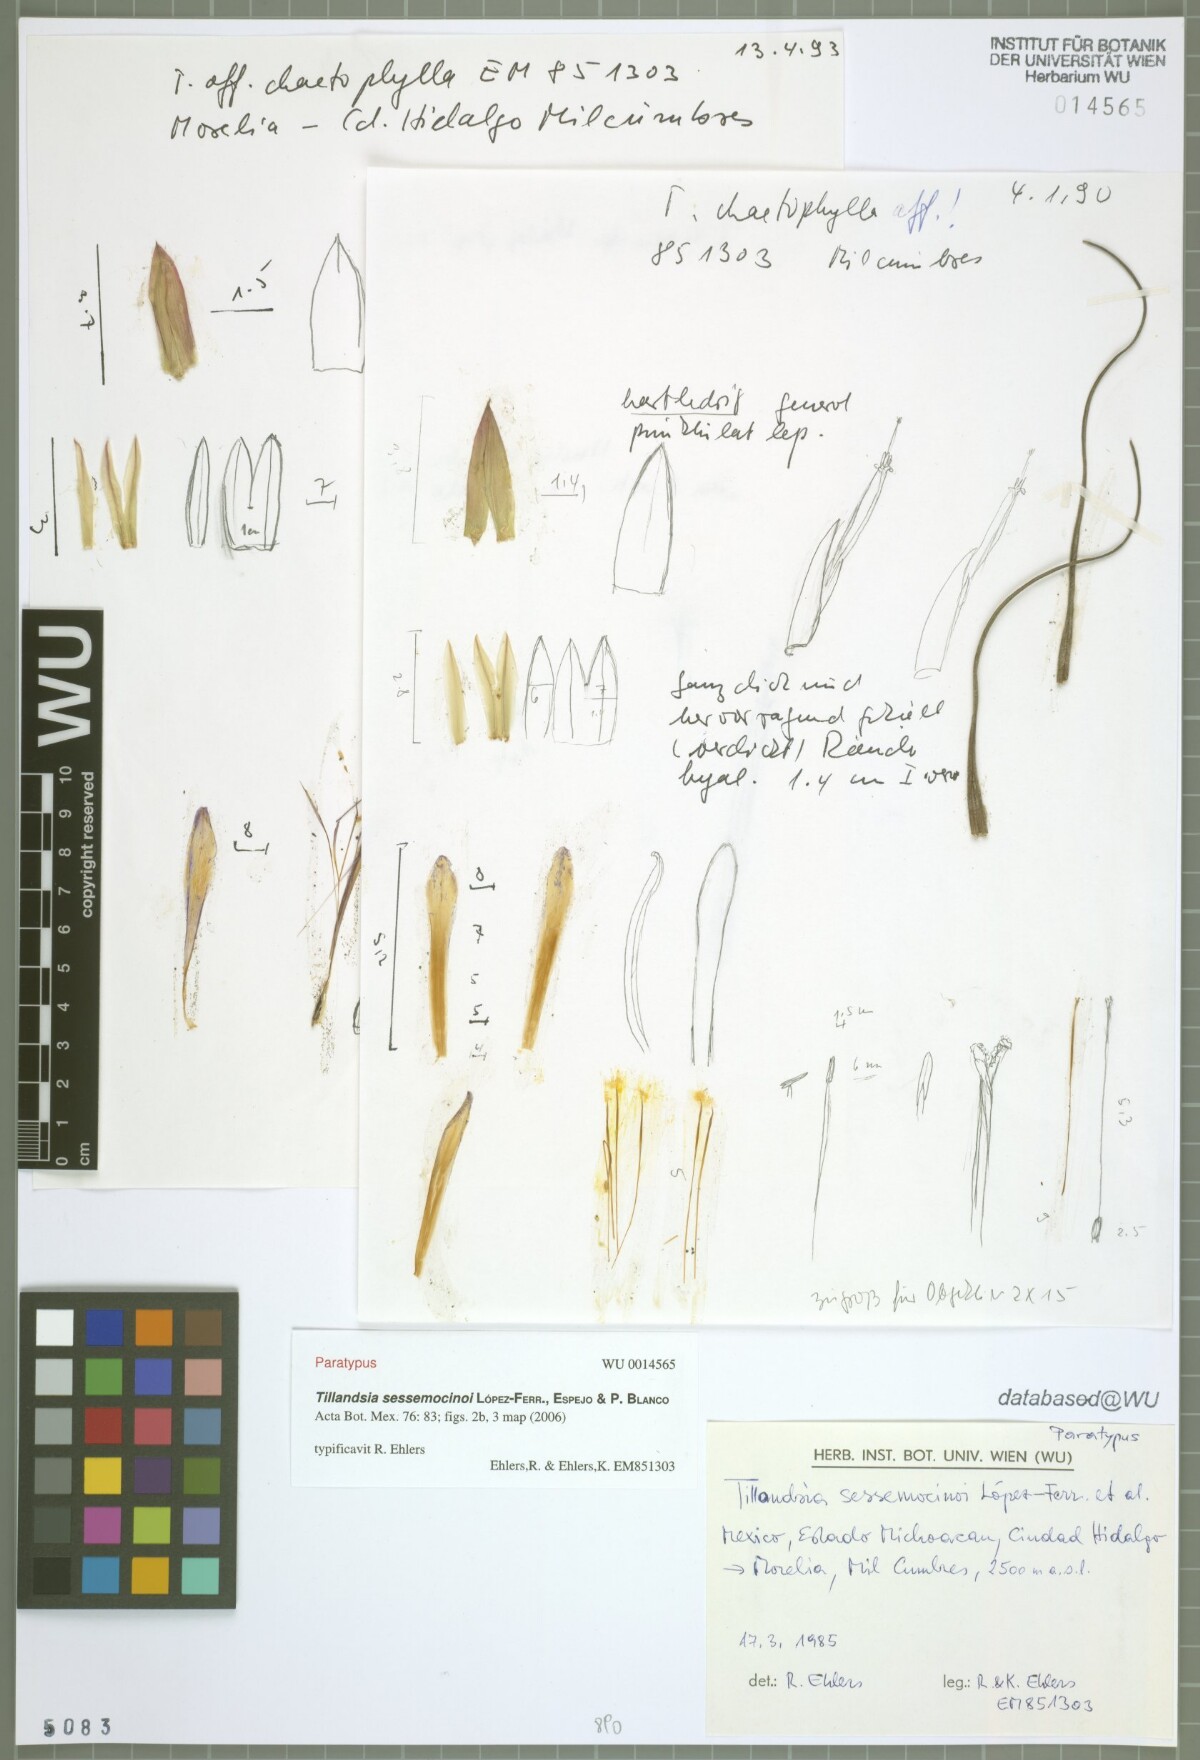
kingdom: Plantae
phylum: Tracheophyta
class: Liliopsida
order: Poales
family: Bromeliaceae
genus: Tillandsia
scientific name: Tillandsia sessemocinoi
